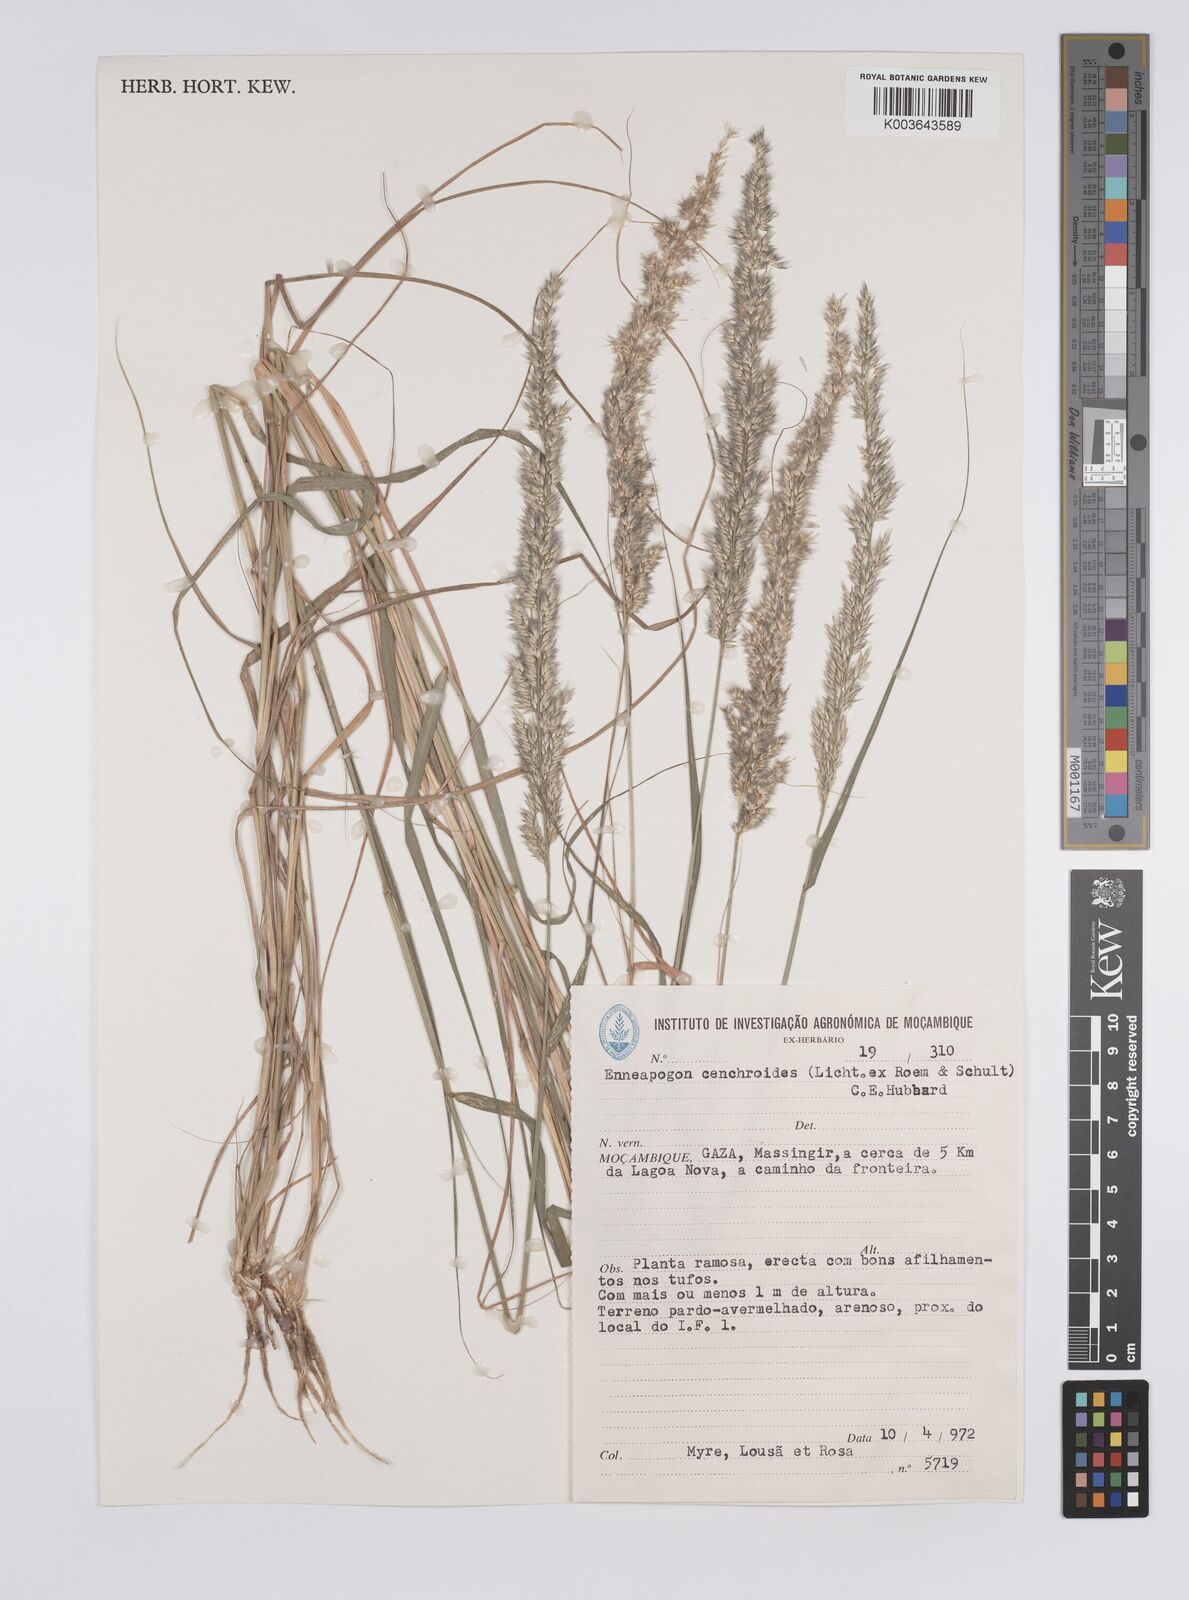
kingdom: Plantae
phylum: Tracheophyta
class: Liliopsida
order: Poales
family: Poaceae
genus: Enneapogon
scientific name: Enneapogon cenchroides
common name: Soft feather pappusgrass
